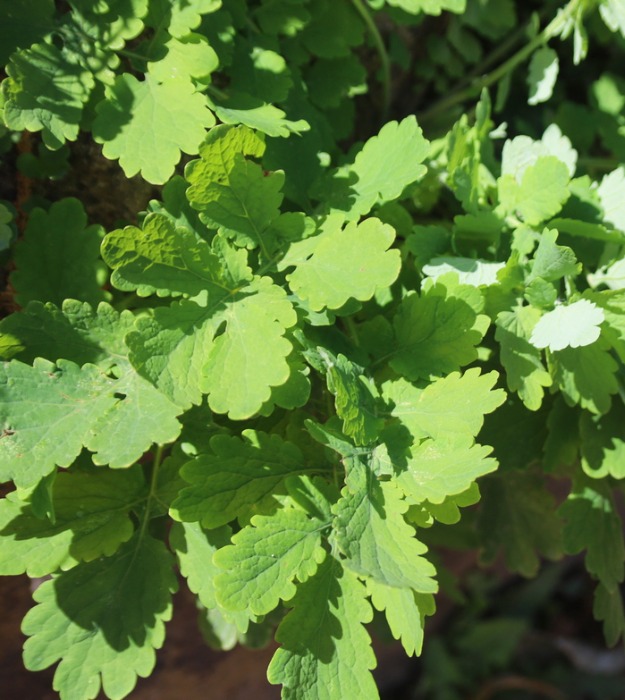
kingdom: Plantae
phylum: Tracheophyta
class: Magnoliopsida
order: Ranunculales
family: Papaveraceae
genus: Chelidonium
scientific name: Chelidonium majus
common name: Svaleurt
